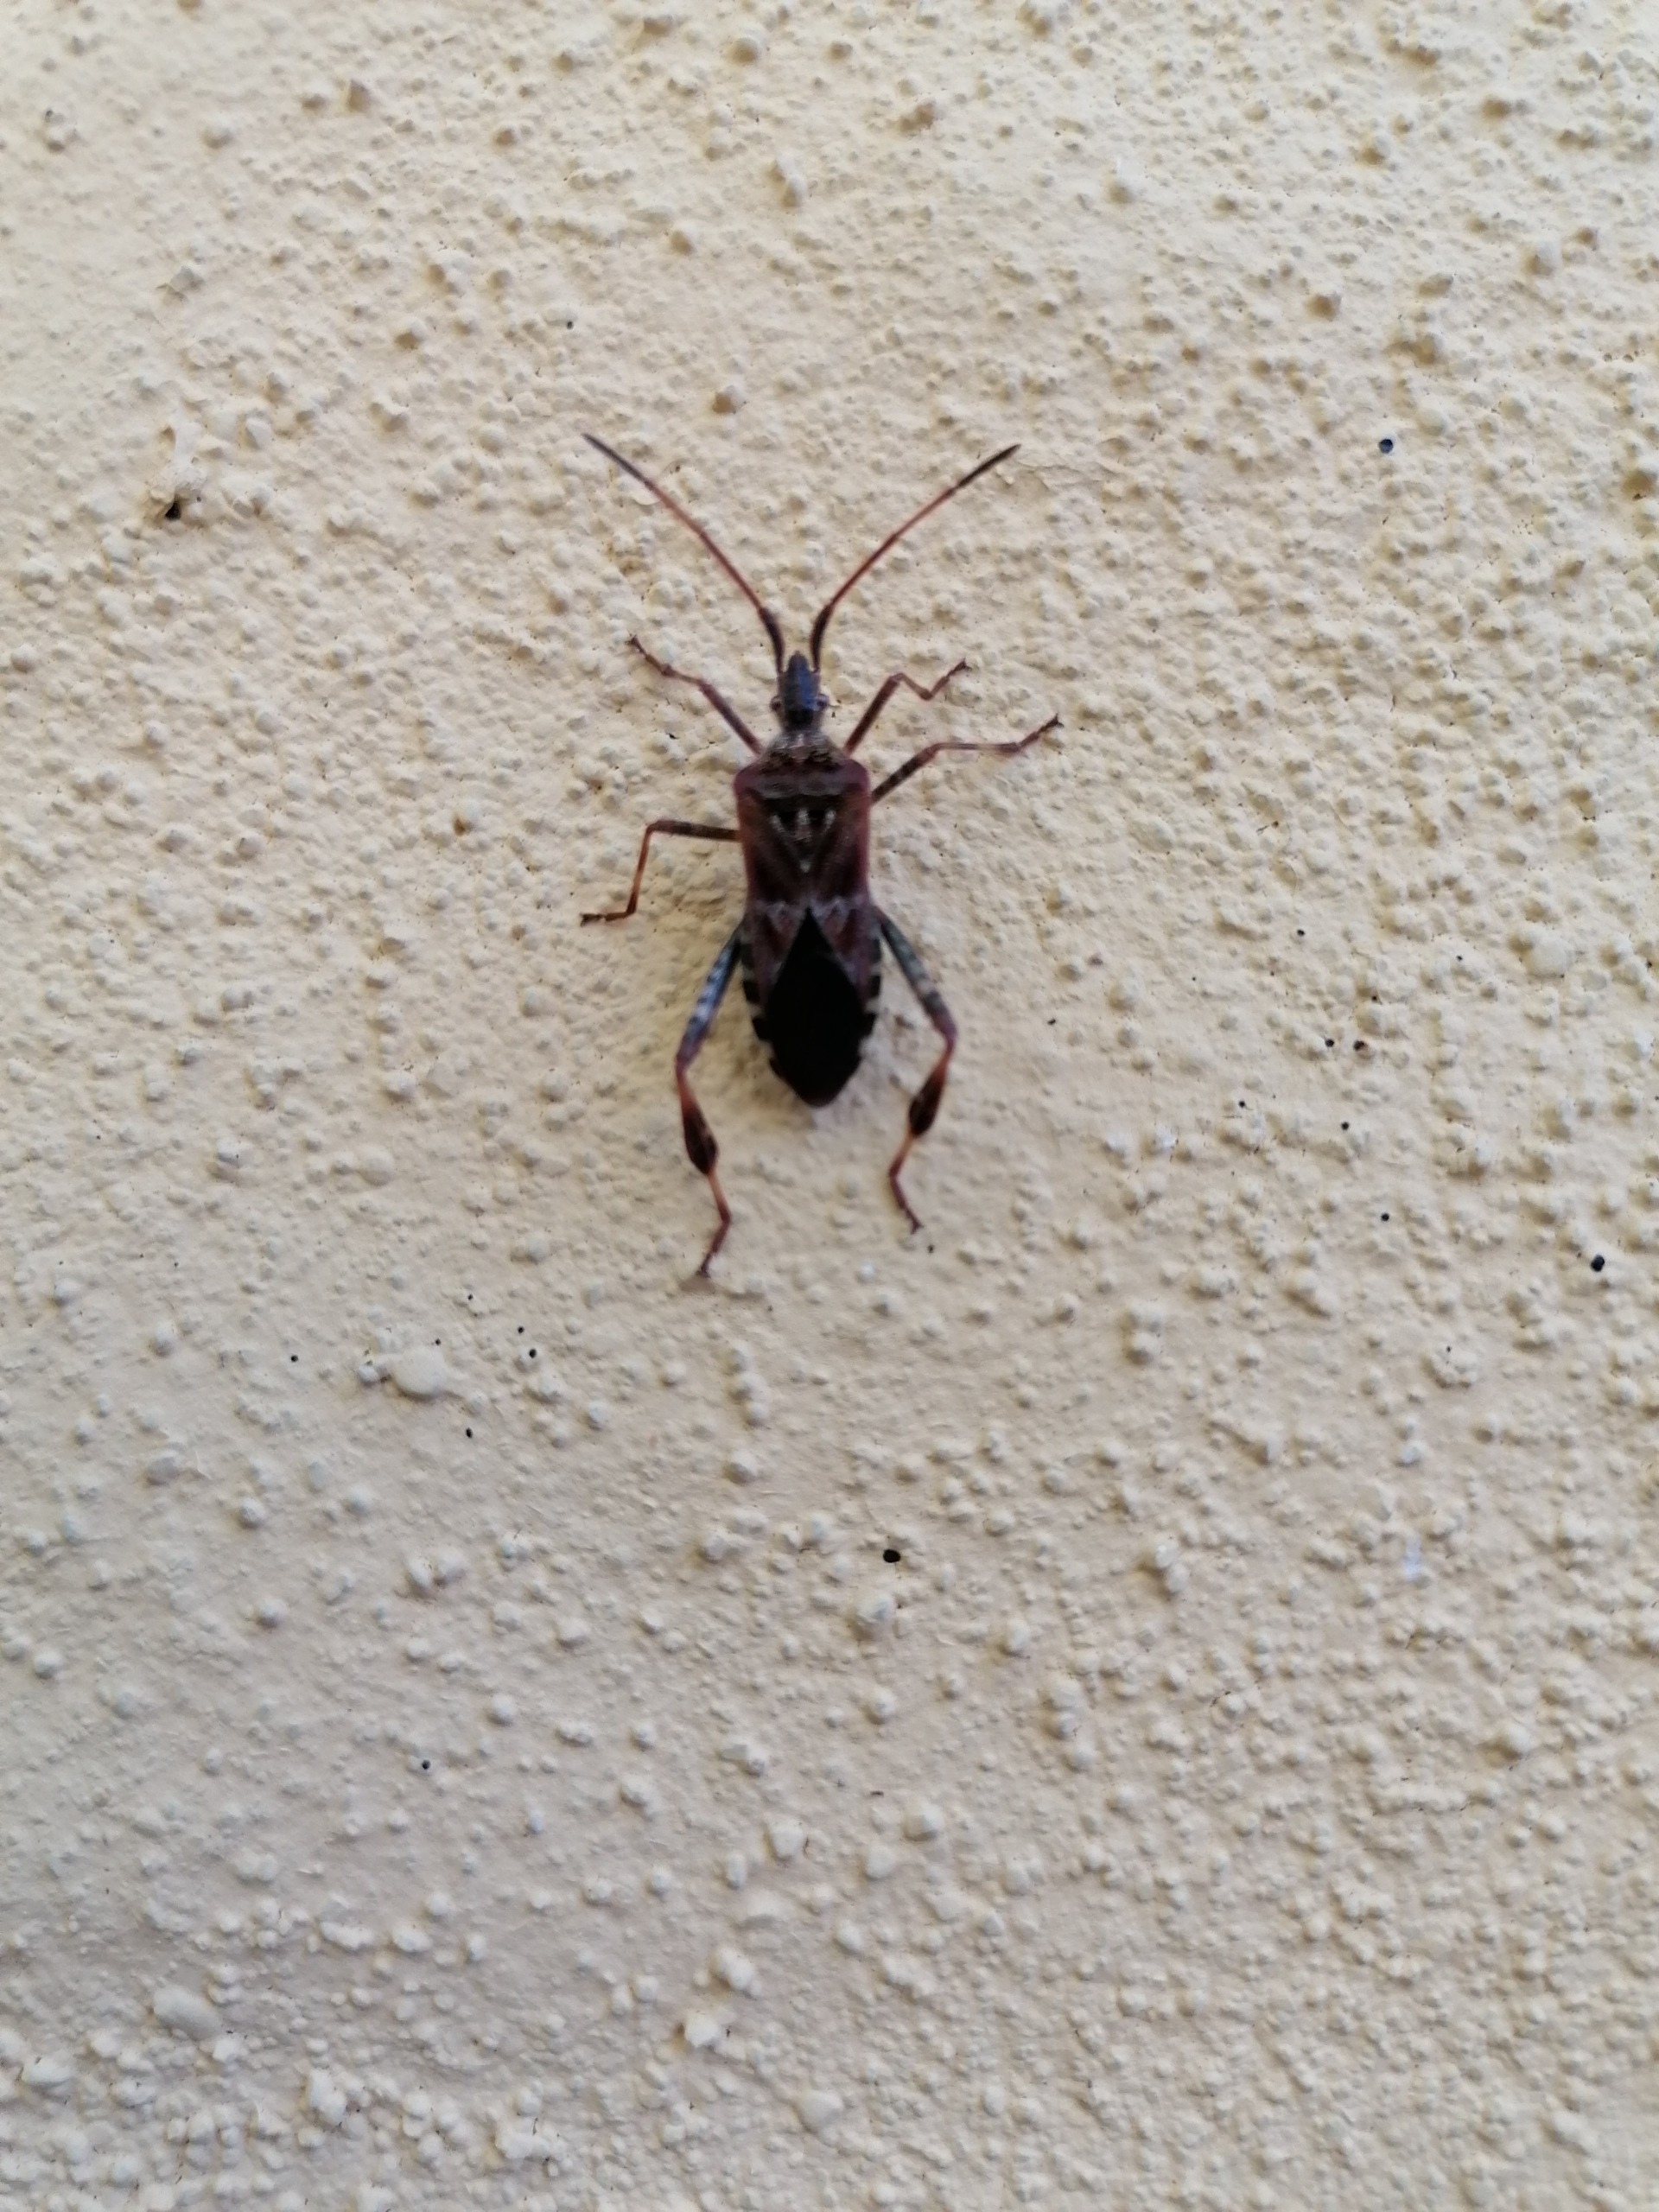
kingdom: Animalia
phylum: Arthropoda
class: Insecta
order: Hemiptera
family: Coreidae
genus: Leptoglossus
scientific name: Leptoglossus occidentalis
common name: Amerikansk fyrretæge
